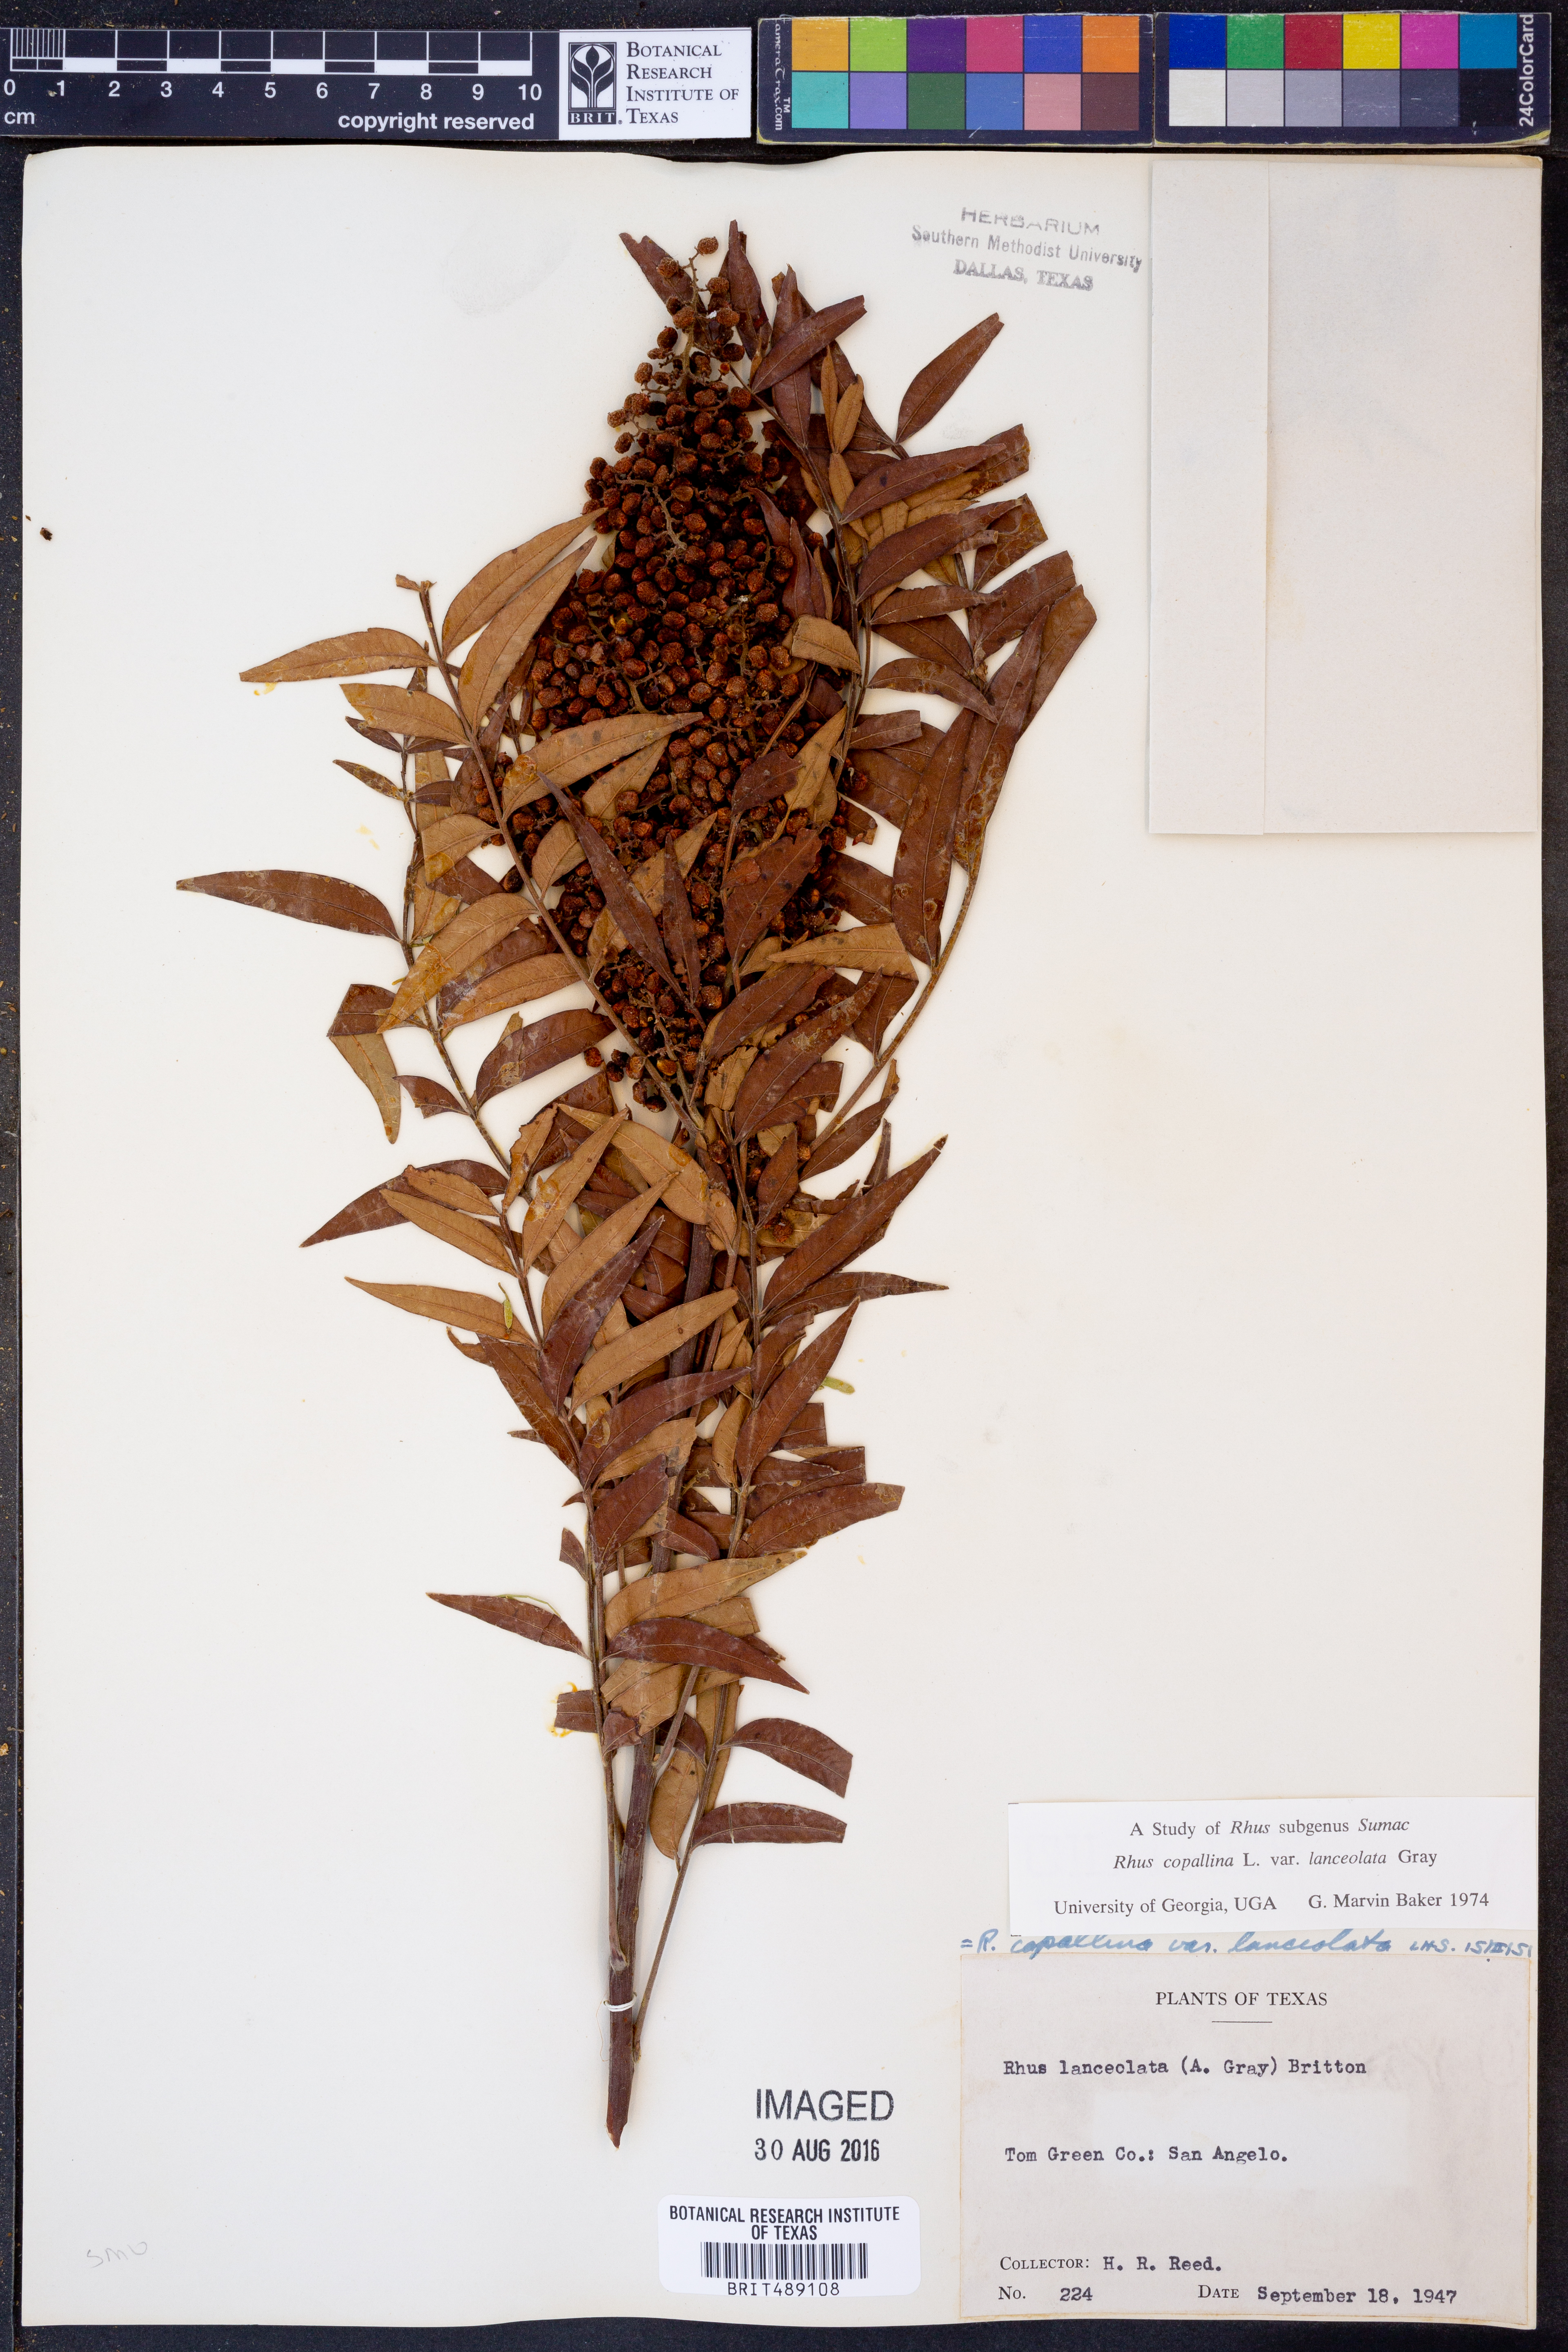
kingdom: Plantae
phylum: Tracheophyta
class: Magnoliopsida
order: Sapindales
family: Anacardiaceae
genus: Rhus
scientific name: Rhus lanceolata
